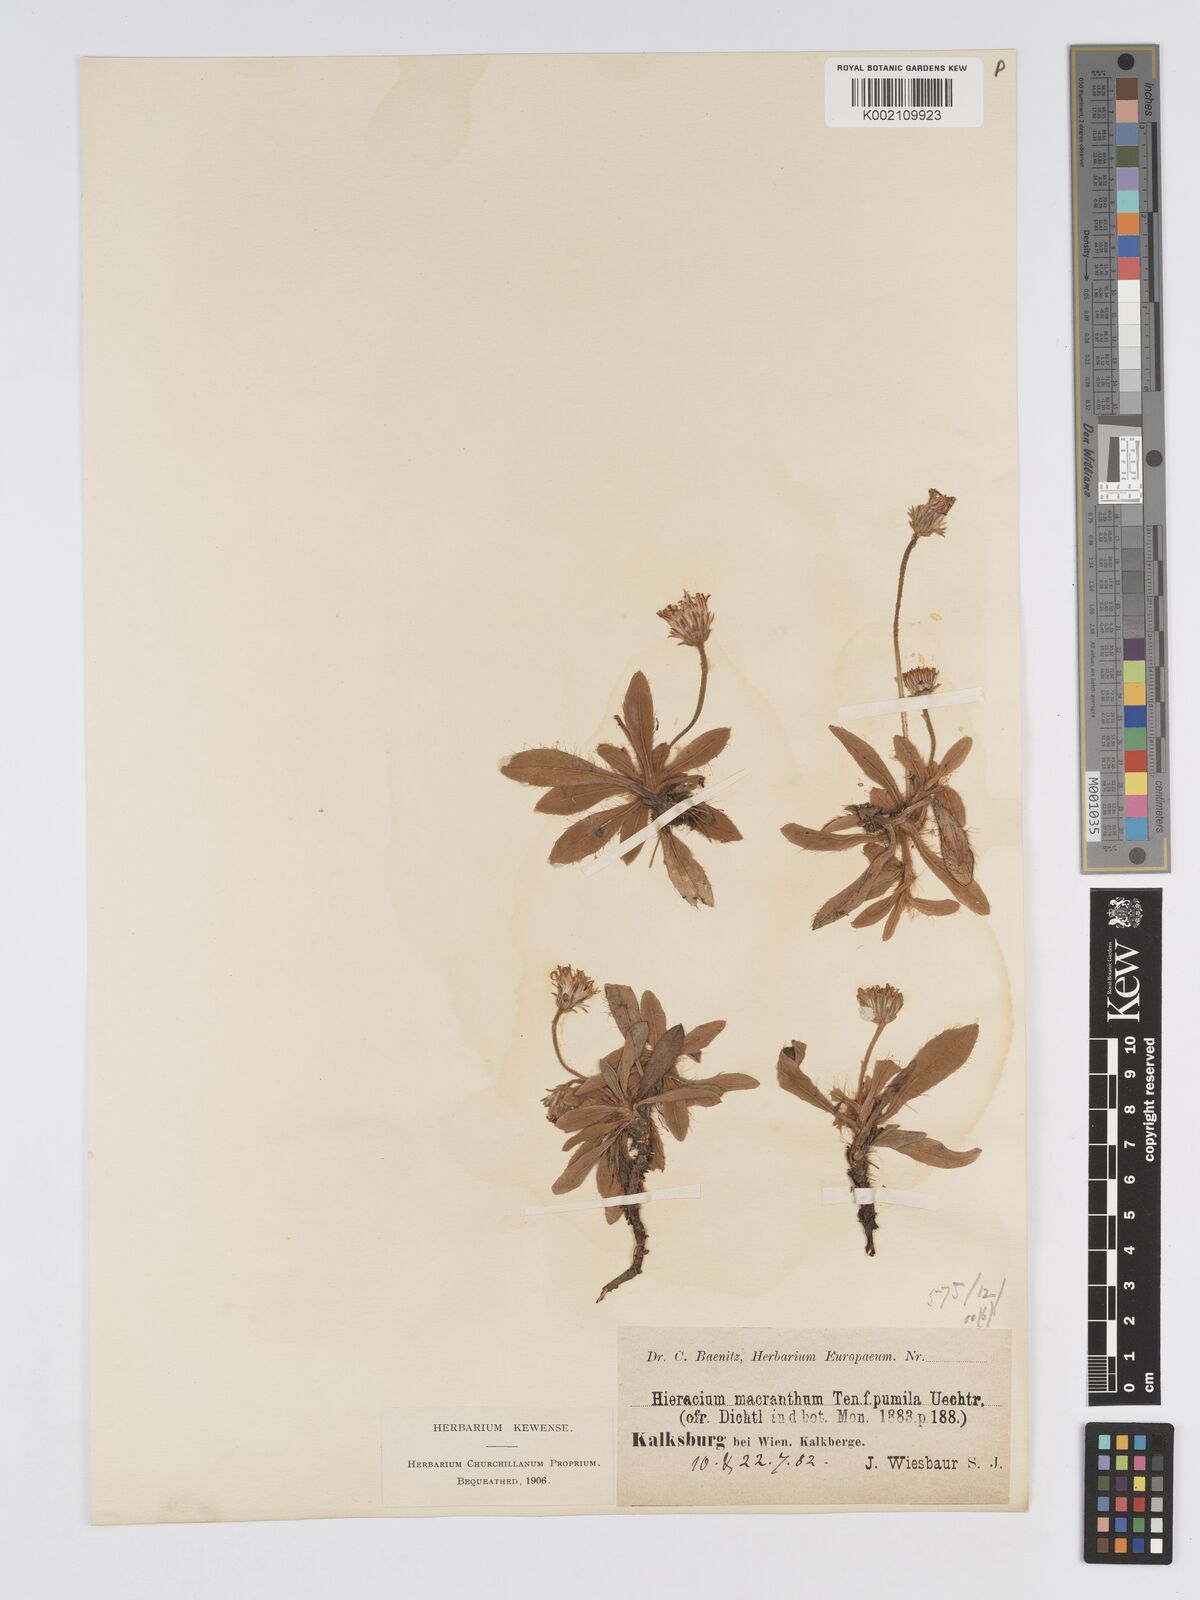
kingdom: Plantae
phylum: Tracheophyta
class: Magnoliopsida
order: Asterales
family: Asteraceae
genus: Pilosella
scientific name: Pilosella hoppeana
